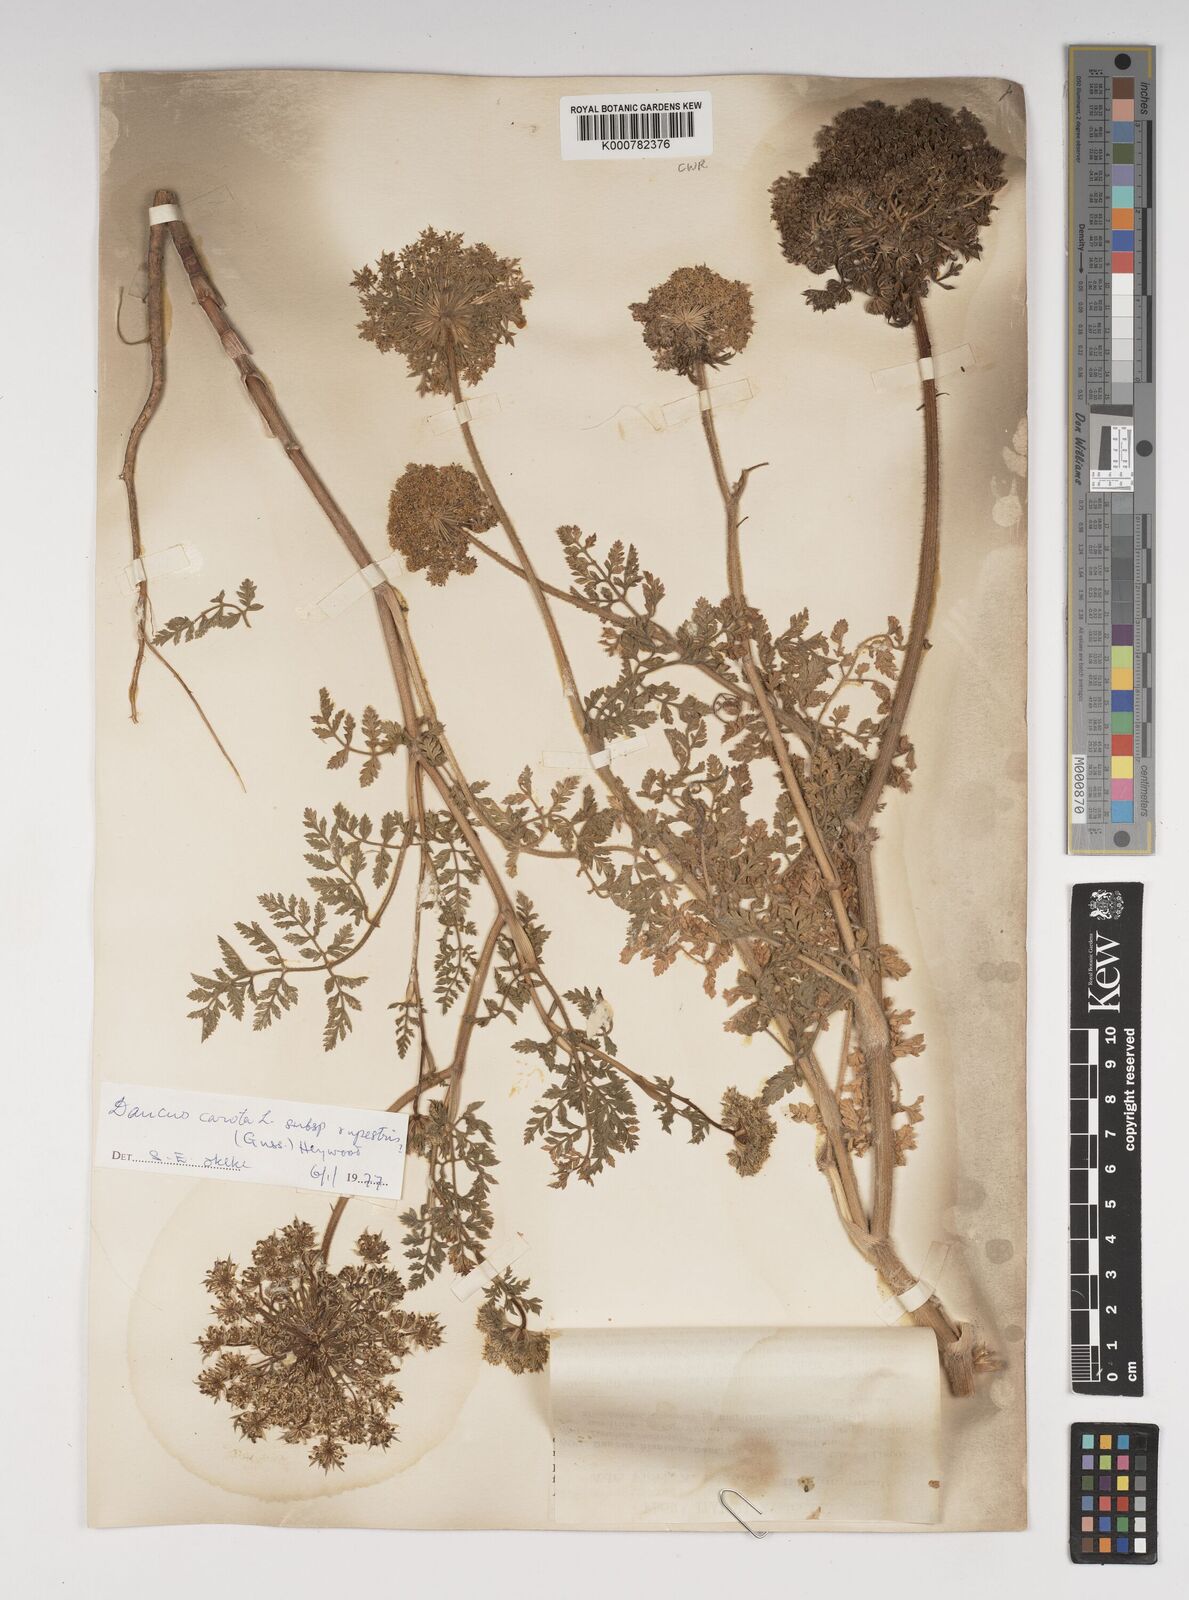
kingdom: Plantae
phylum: Tracheophyta
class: Magnoliopsida
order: Apiales
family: Apiaceae
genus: Daucus
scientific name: Daucus carota
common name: Wild carrot
